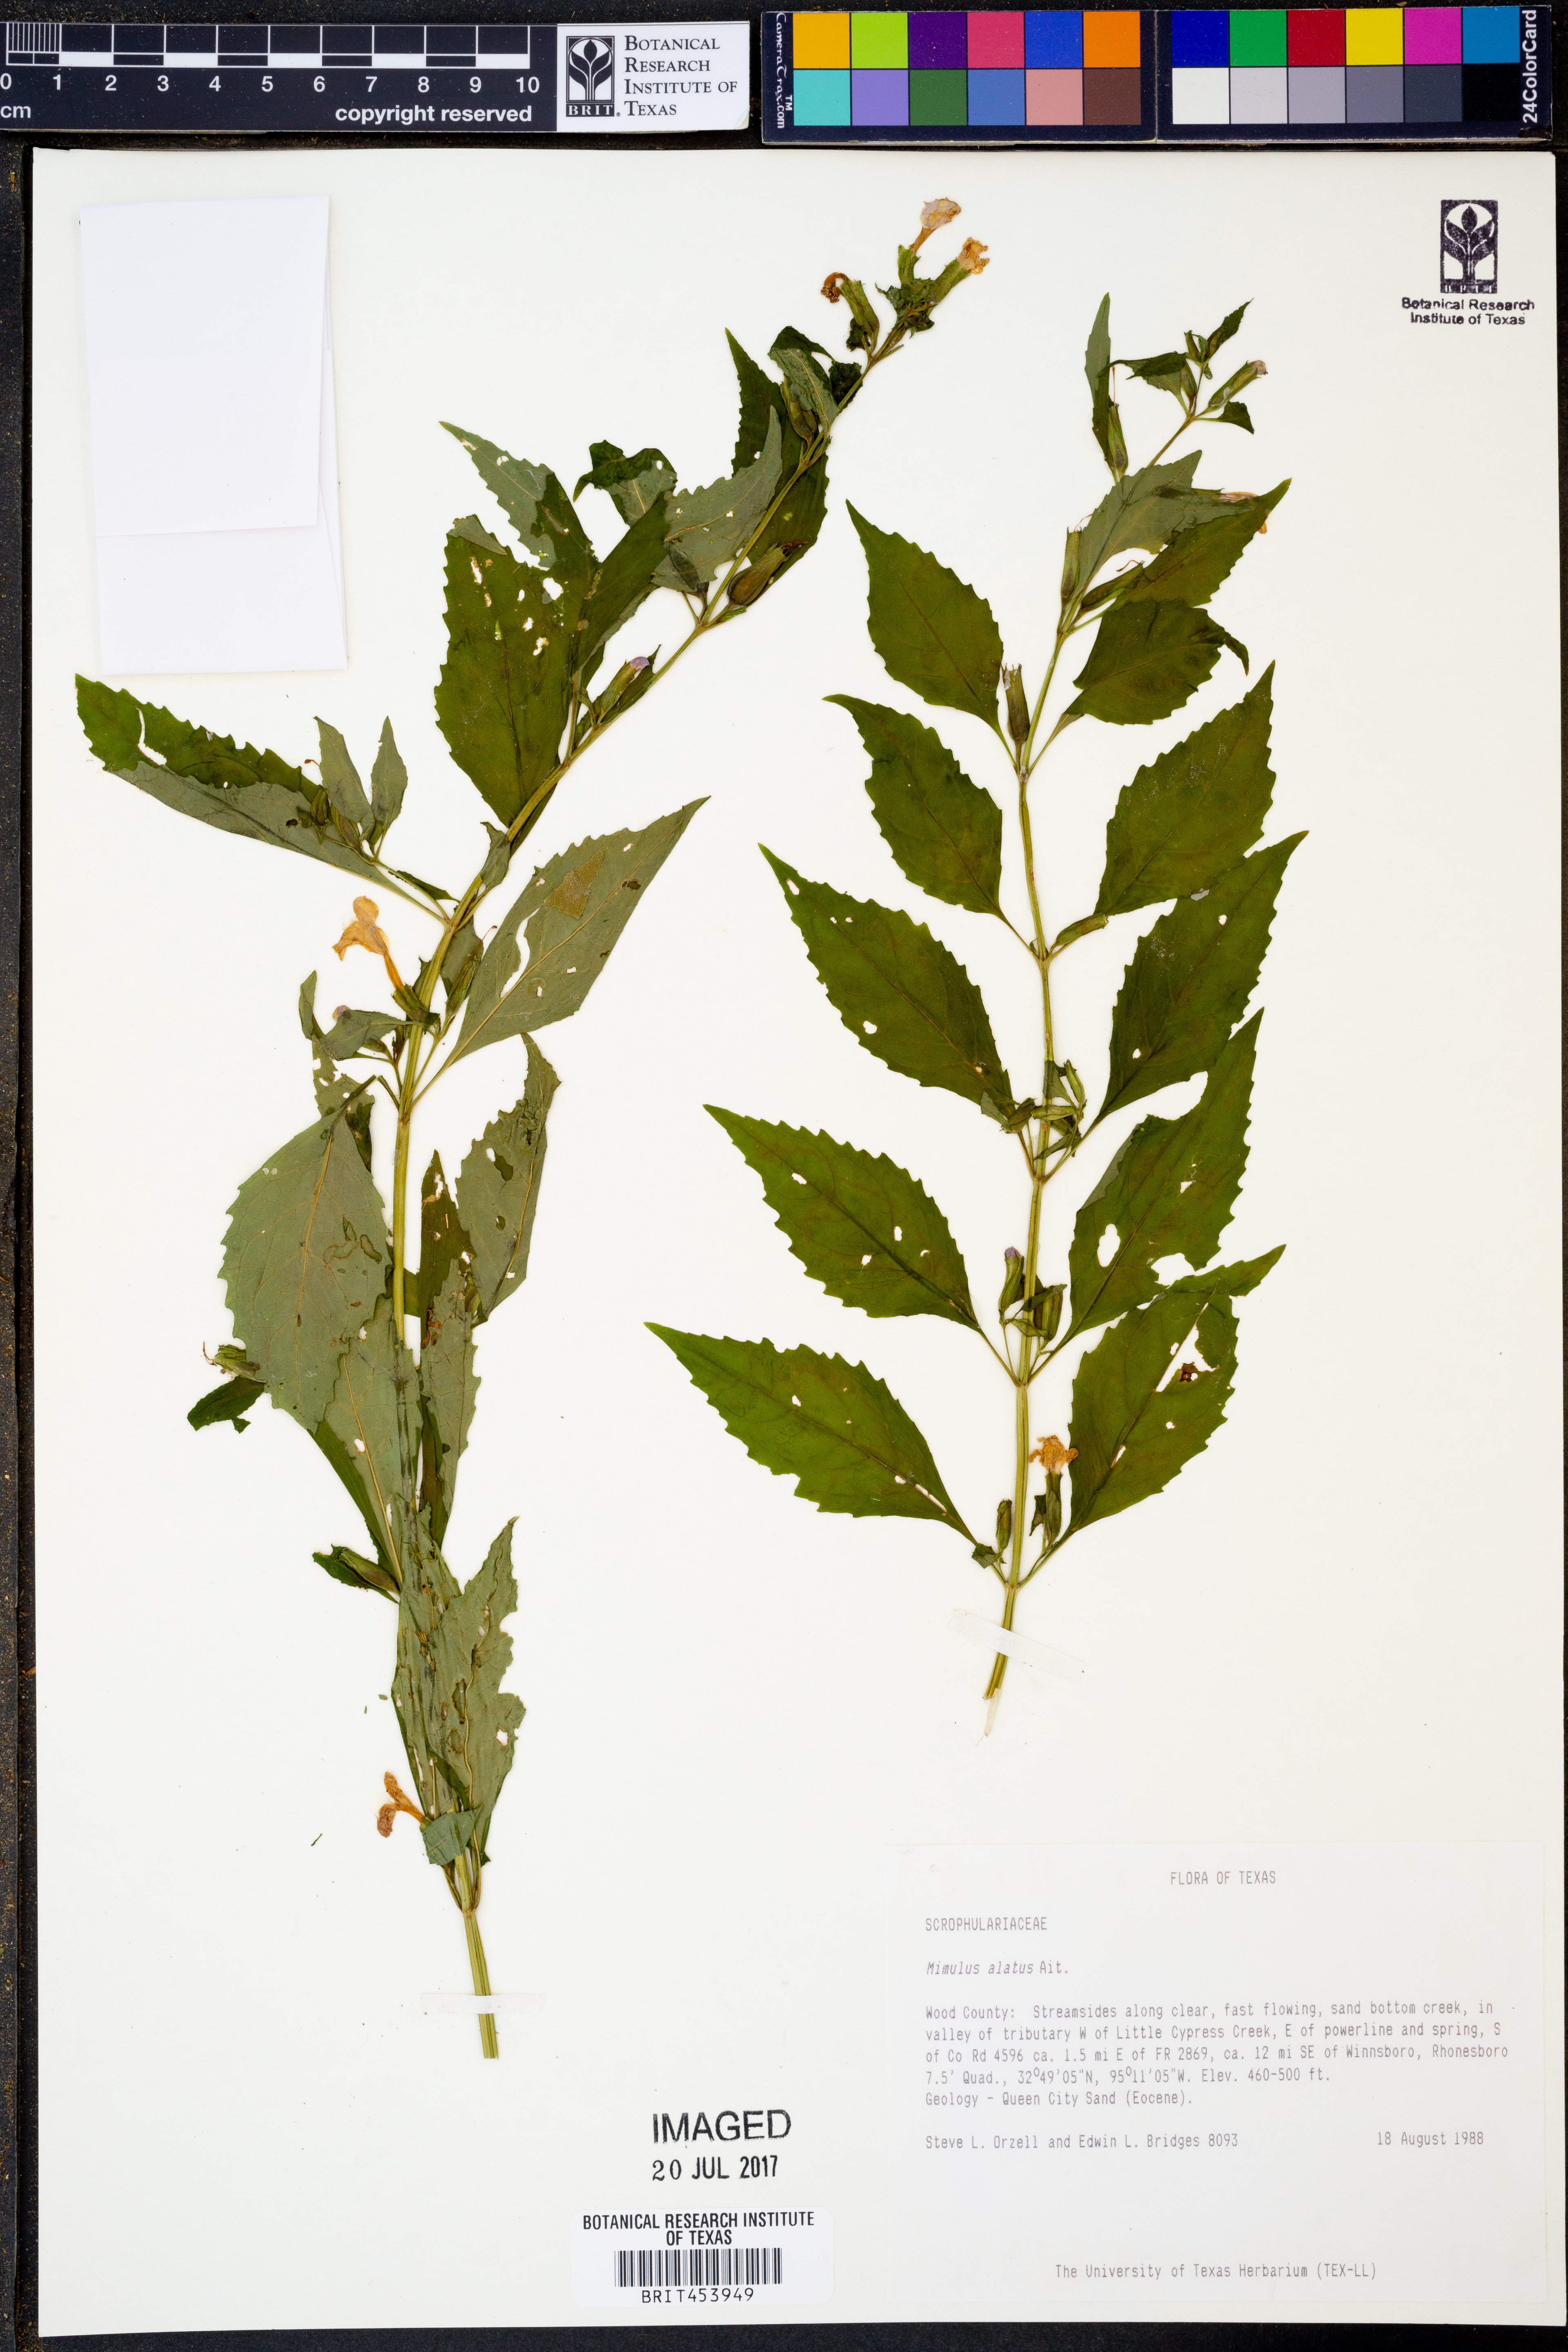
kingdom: Plantae
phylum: Tracheophyta
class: Magnoliopsida
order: Lamiales
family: Phrymaceae
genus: Mimulus
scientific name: Mimulus alatus
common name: Sharp-wing monkey-flower
